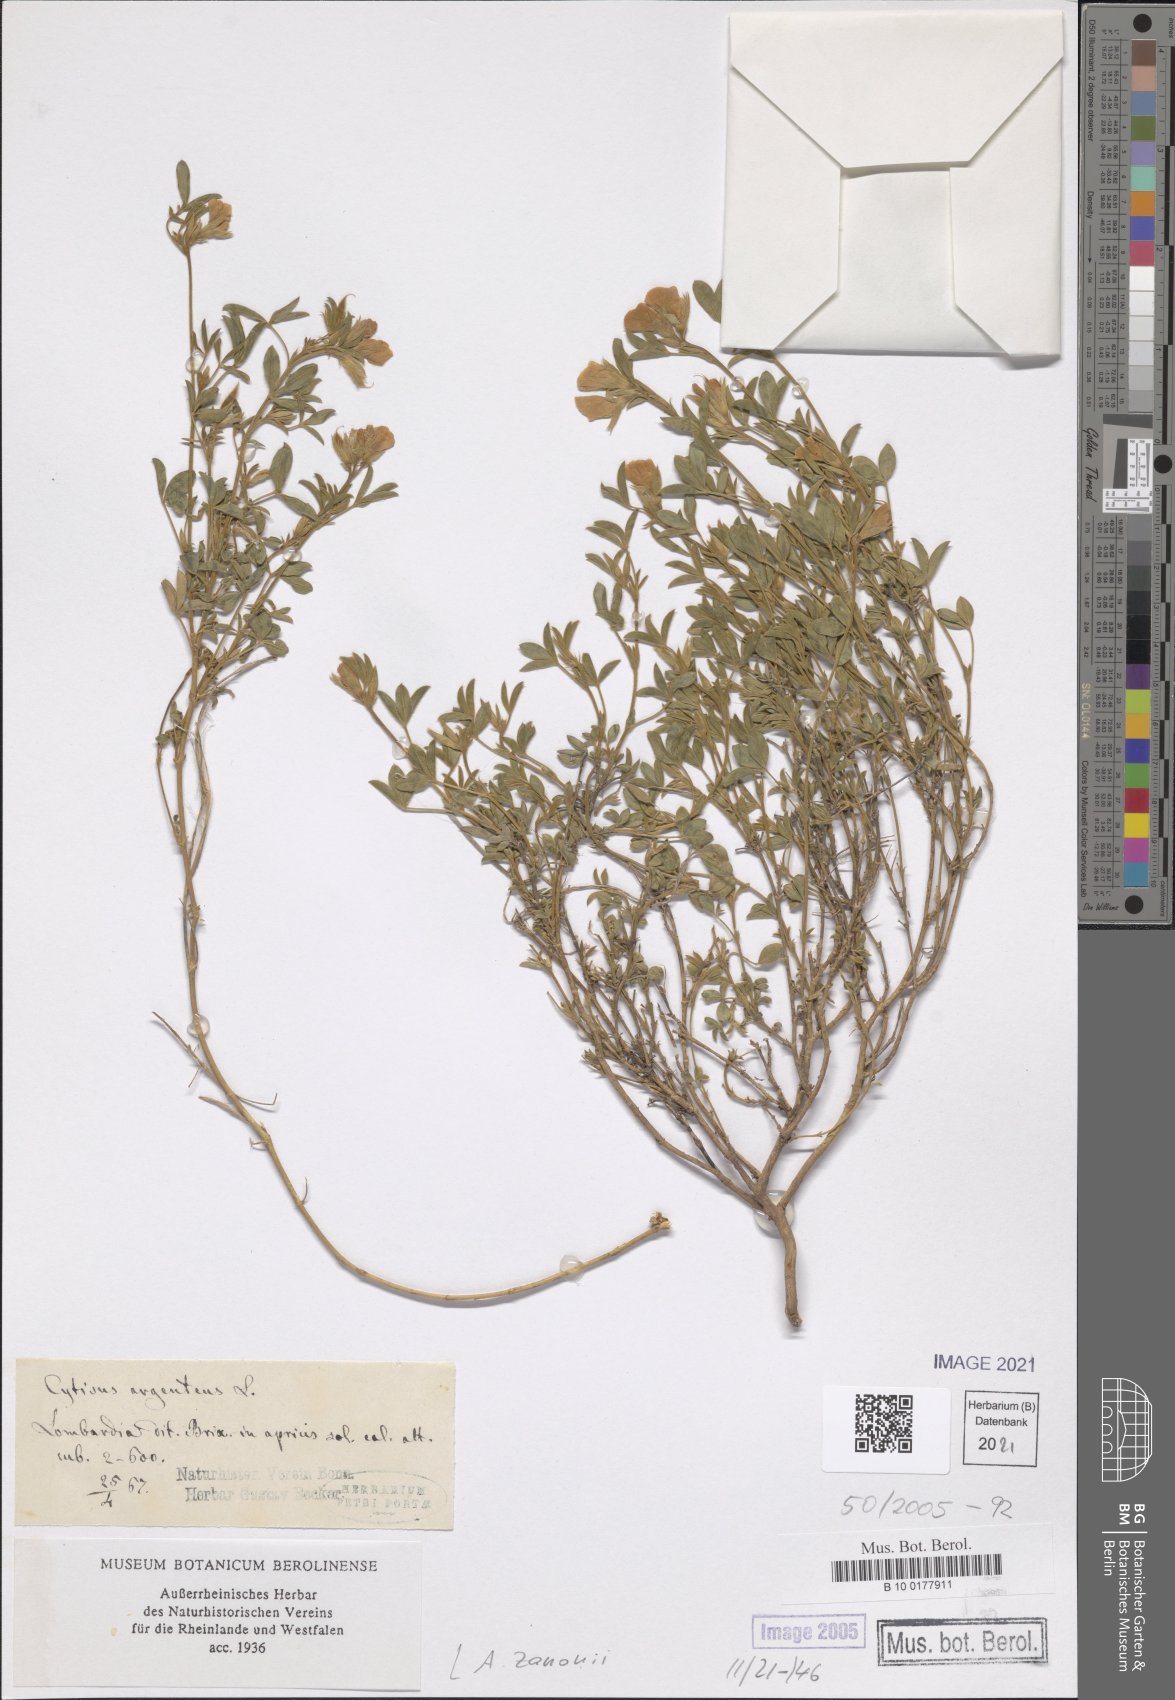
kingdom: Plantae
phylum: Tracheophyta
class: Magnoliopsida
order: Fabales
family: Fabaceae
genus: Argyrolobium
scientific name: Argyrolobium zanonii
